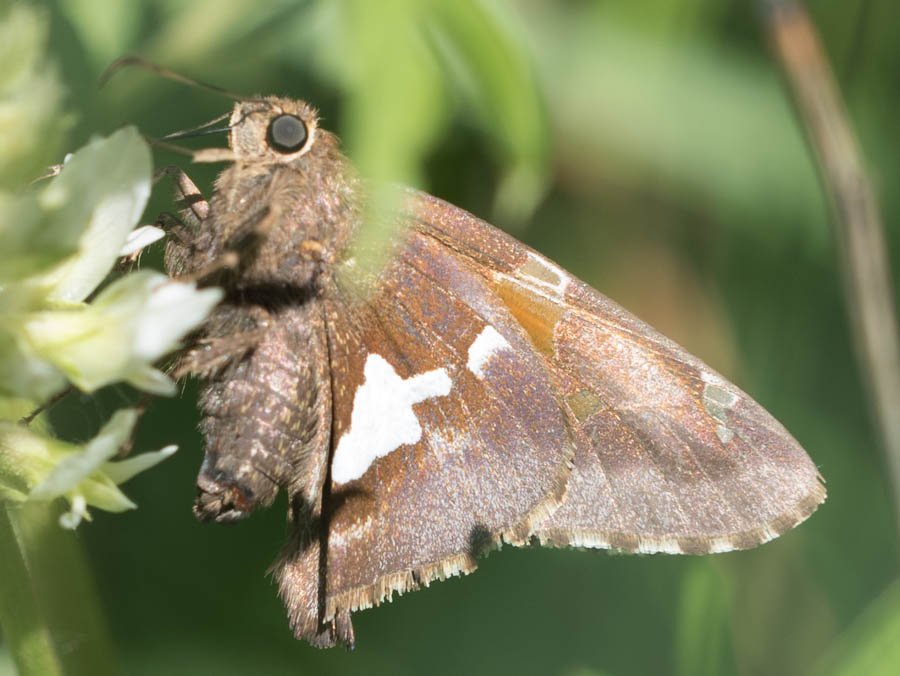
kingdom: Animalia
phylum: Arthropoda
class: Insecta
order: Lepidoptera
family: Hesperiidae
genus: Epargyreus
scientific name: Epargyreus clarus
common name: Silver-spotted Skipper
